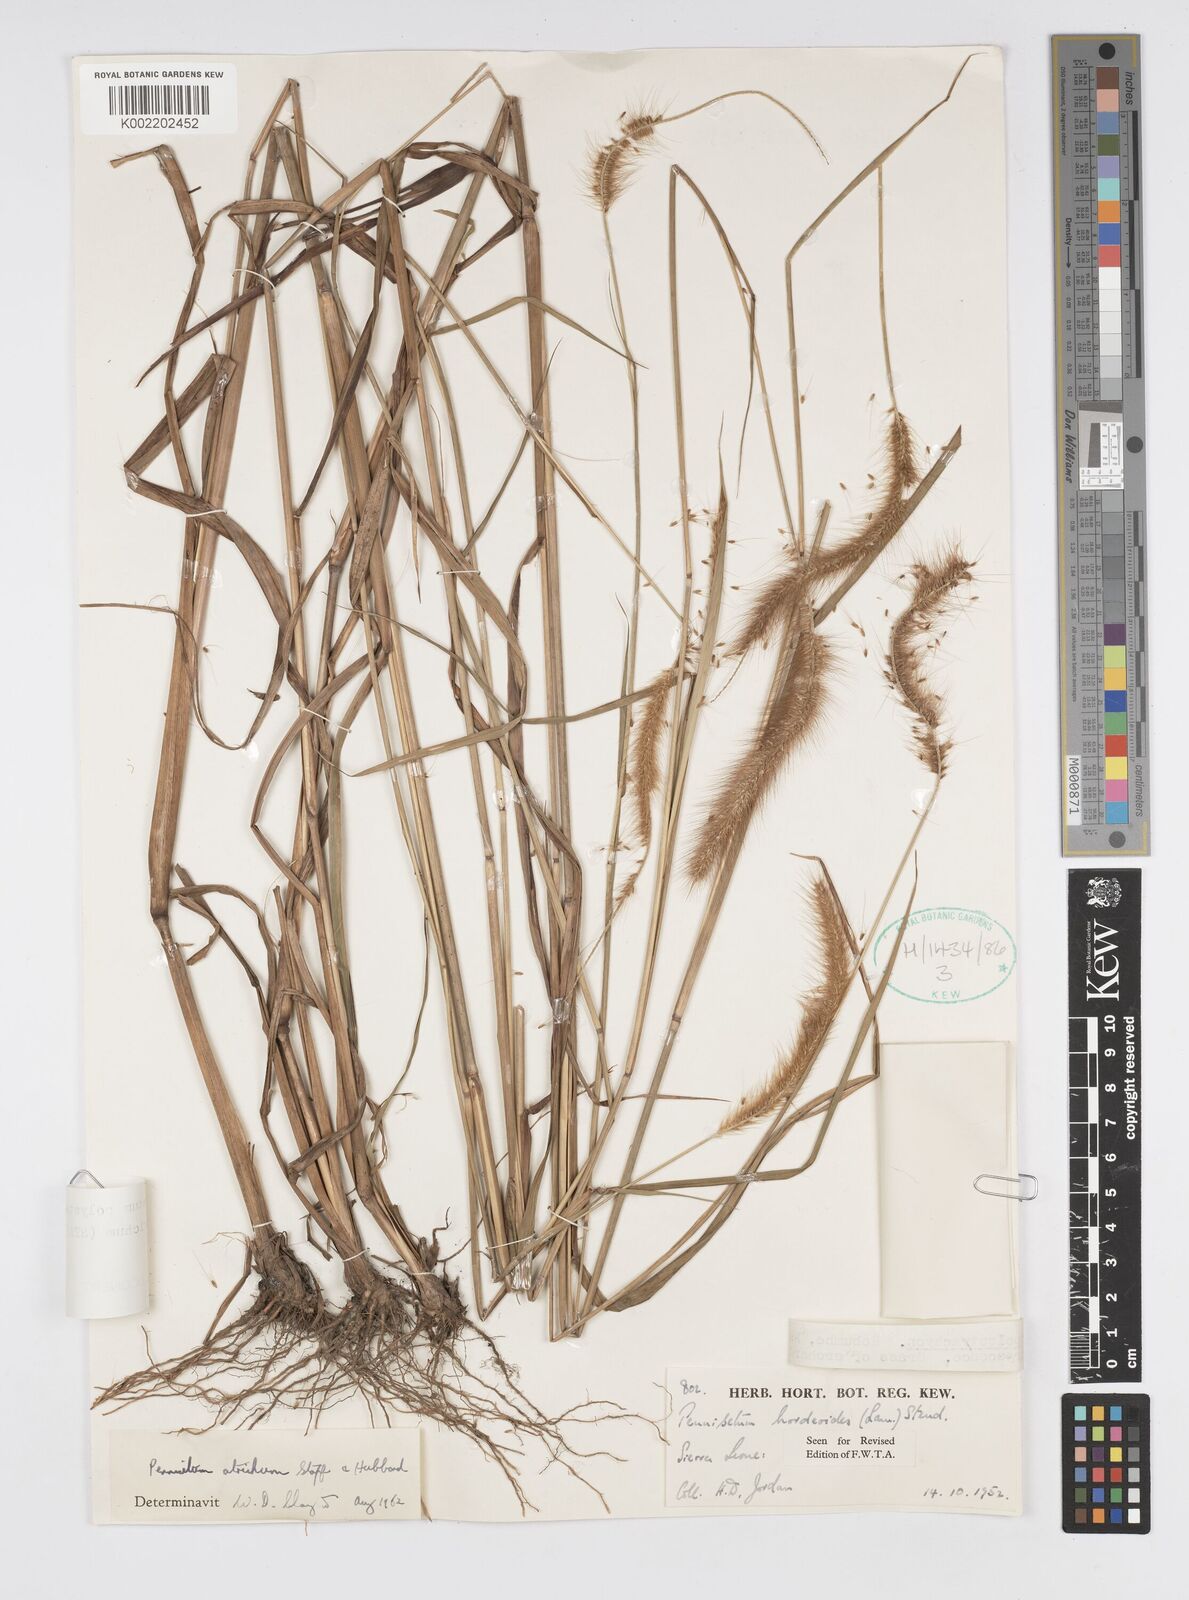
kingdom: Plantae
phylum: Tracheophyta
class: Liliopsida
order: Poales
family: Poaceae
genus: Cenchrus
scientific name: Cenchrus setosus
